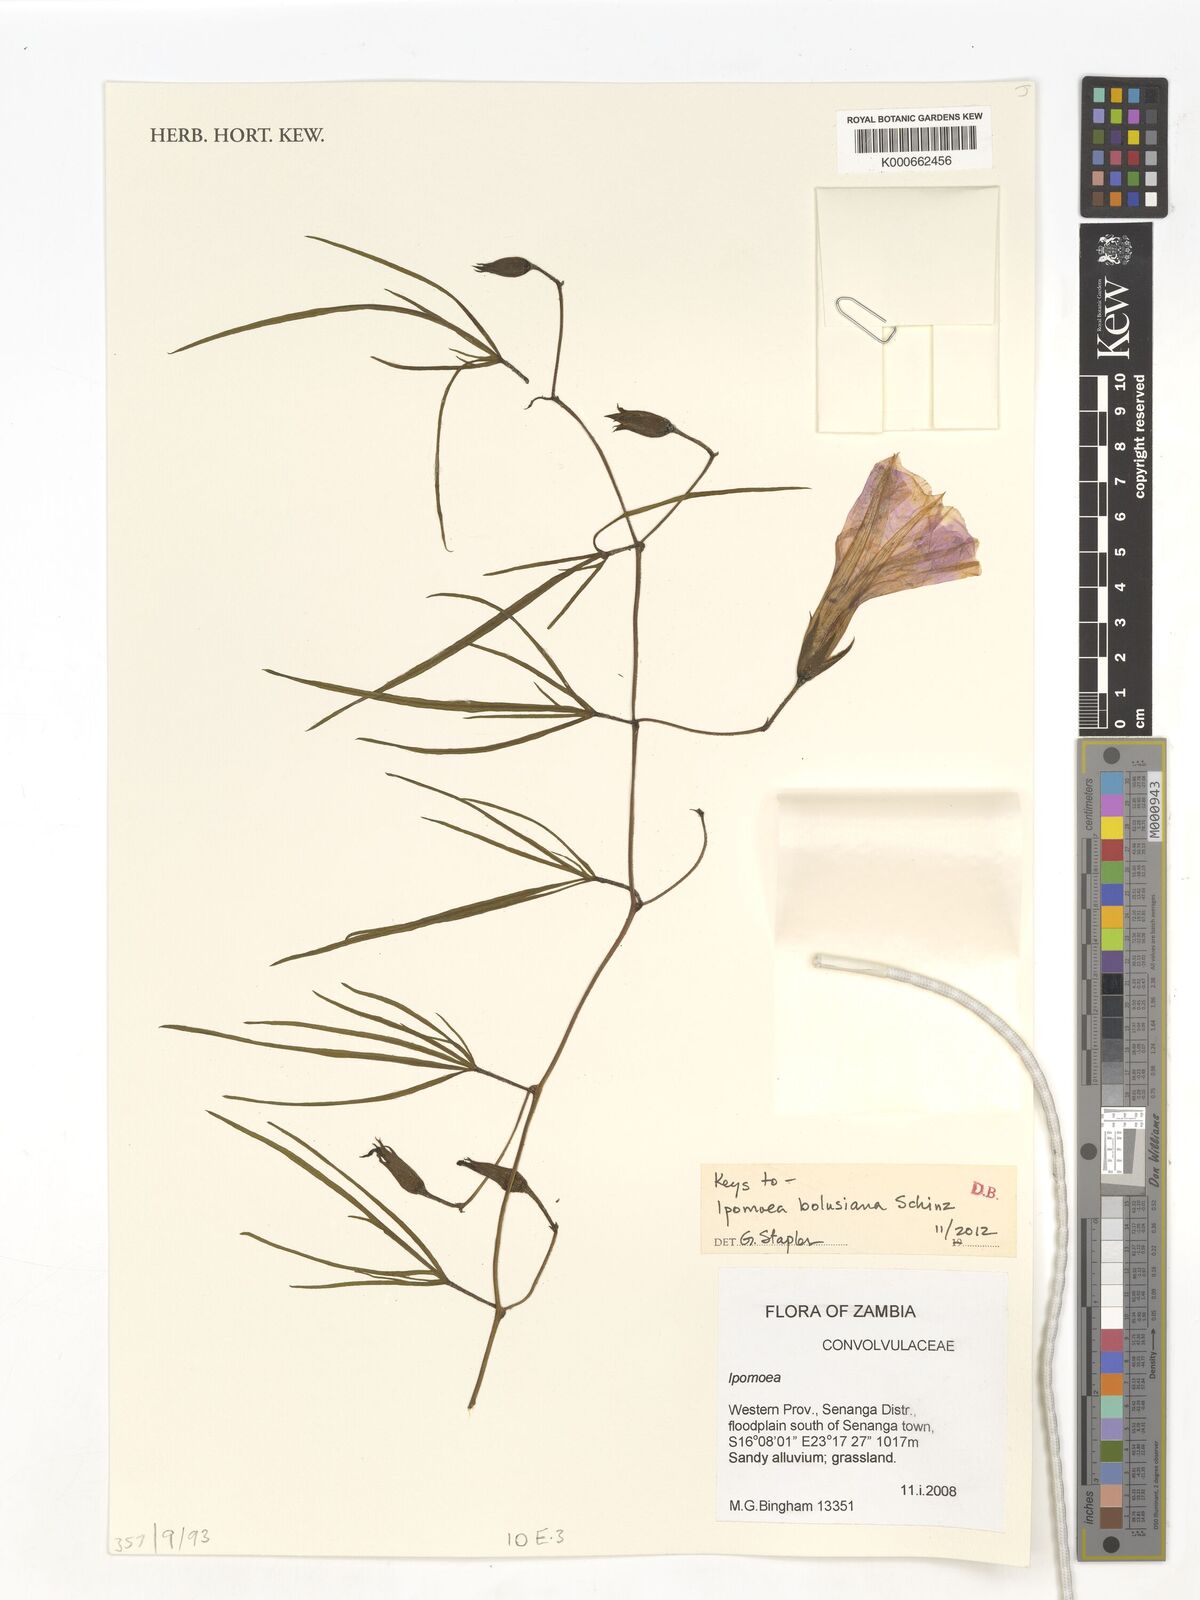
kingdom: Plantae
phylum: Tracheophyta
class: Magnoliopsida
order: Solanales
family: Convolvulaceae
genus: Ipomoea
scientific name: Ipomoea bolusiana
